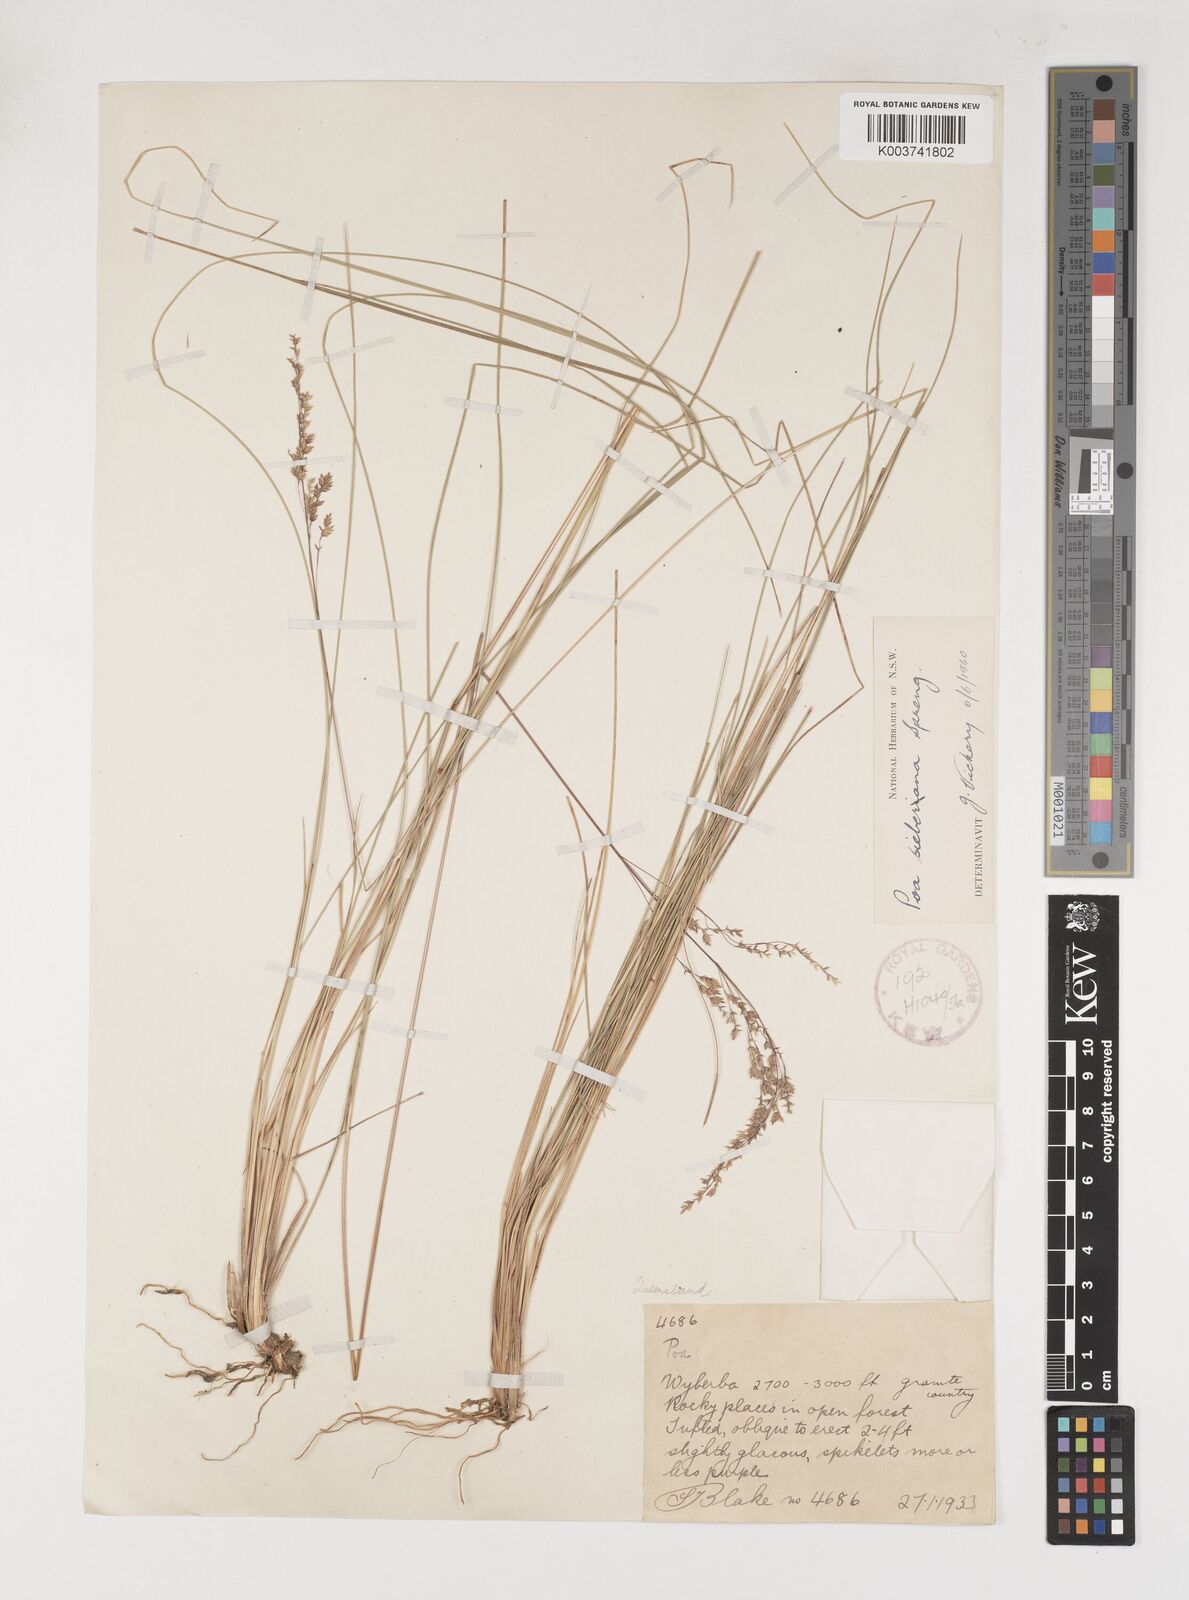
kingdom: Plantae
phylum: Tracheophyta
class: Liliopsida
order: Poales
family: Poaceae
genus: Poa
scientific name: Poa sieberiana
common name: Tussock poa
